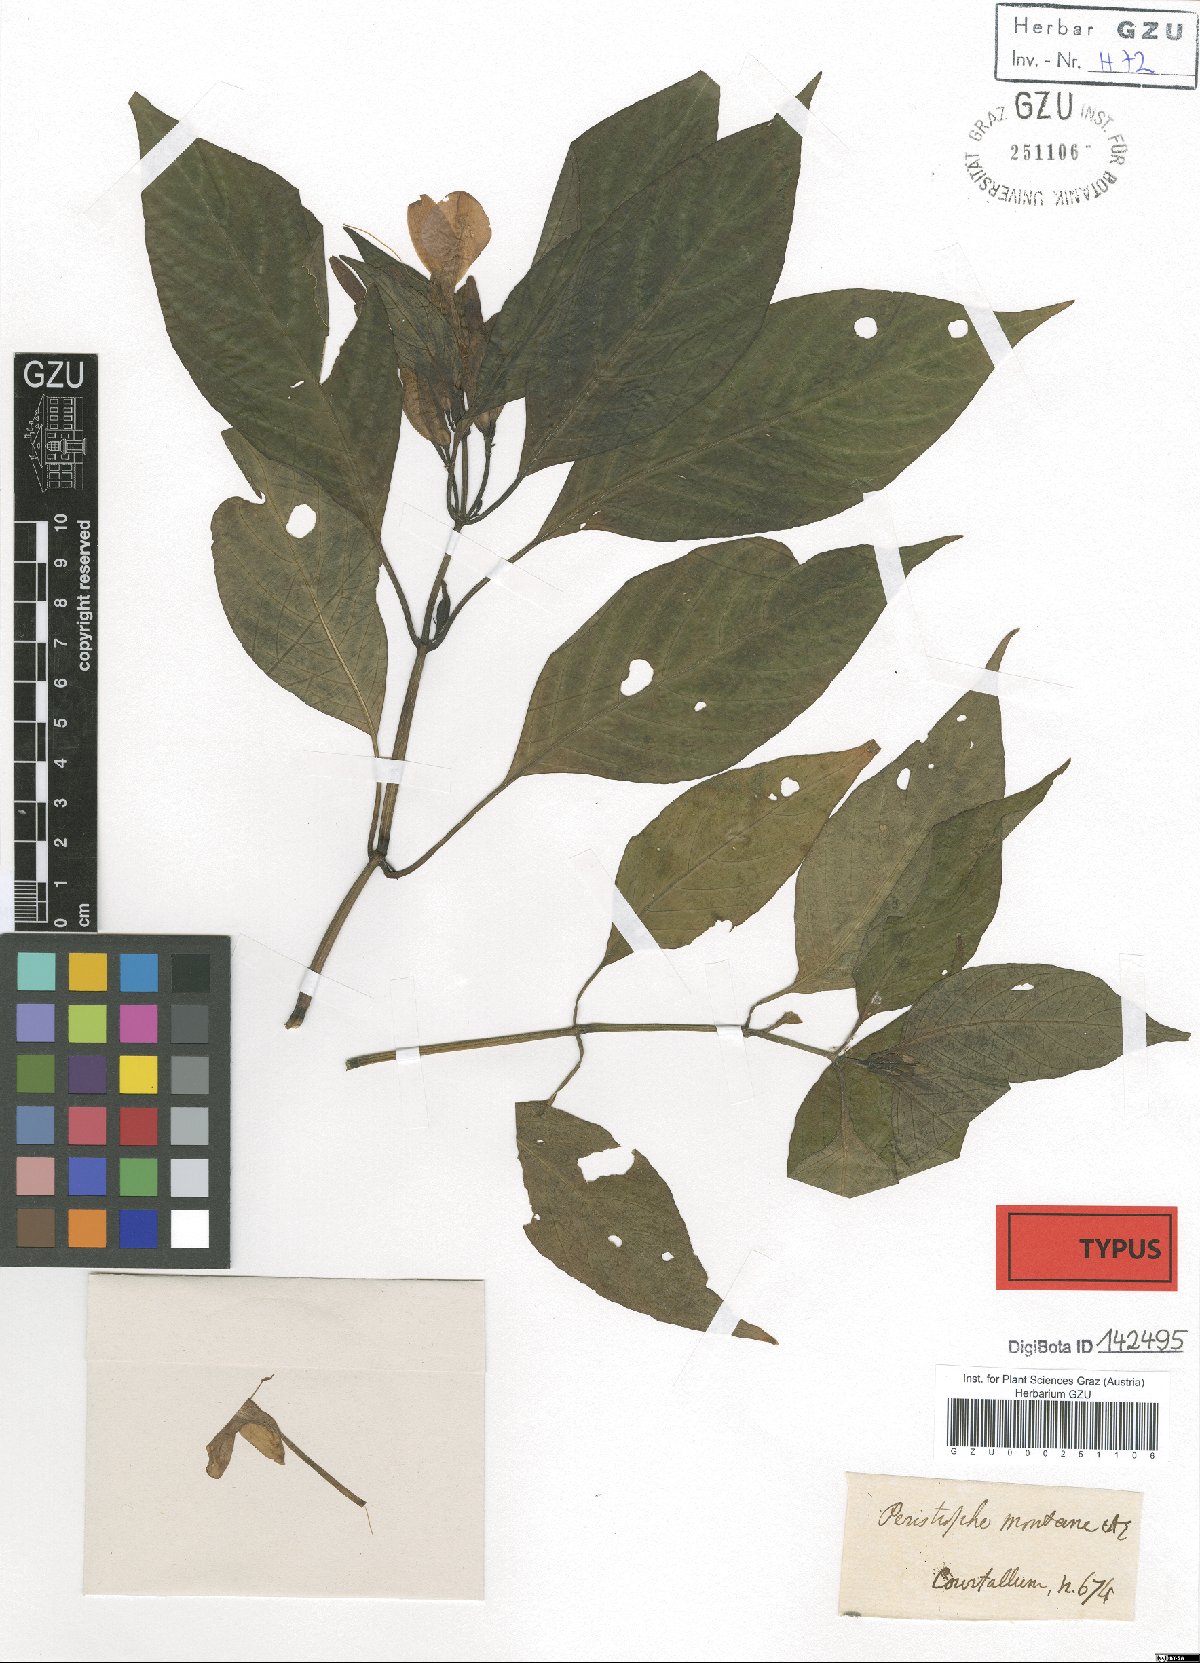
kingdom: Plantae
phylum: Tracheophyta
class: Magnoliopsida
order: Lamiales
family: Acanthaceae
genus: Dicliptera
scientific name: Dicliptera baphica
